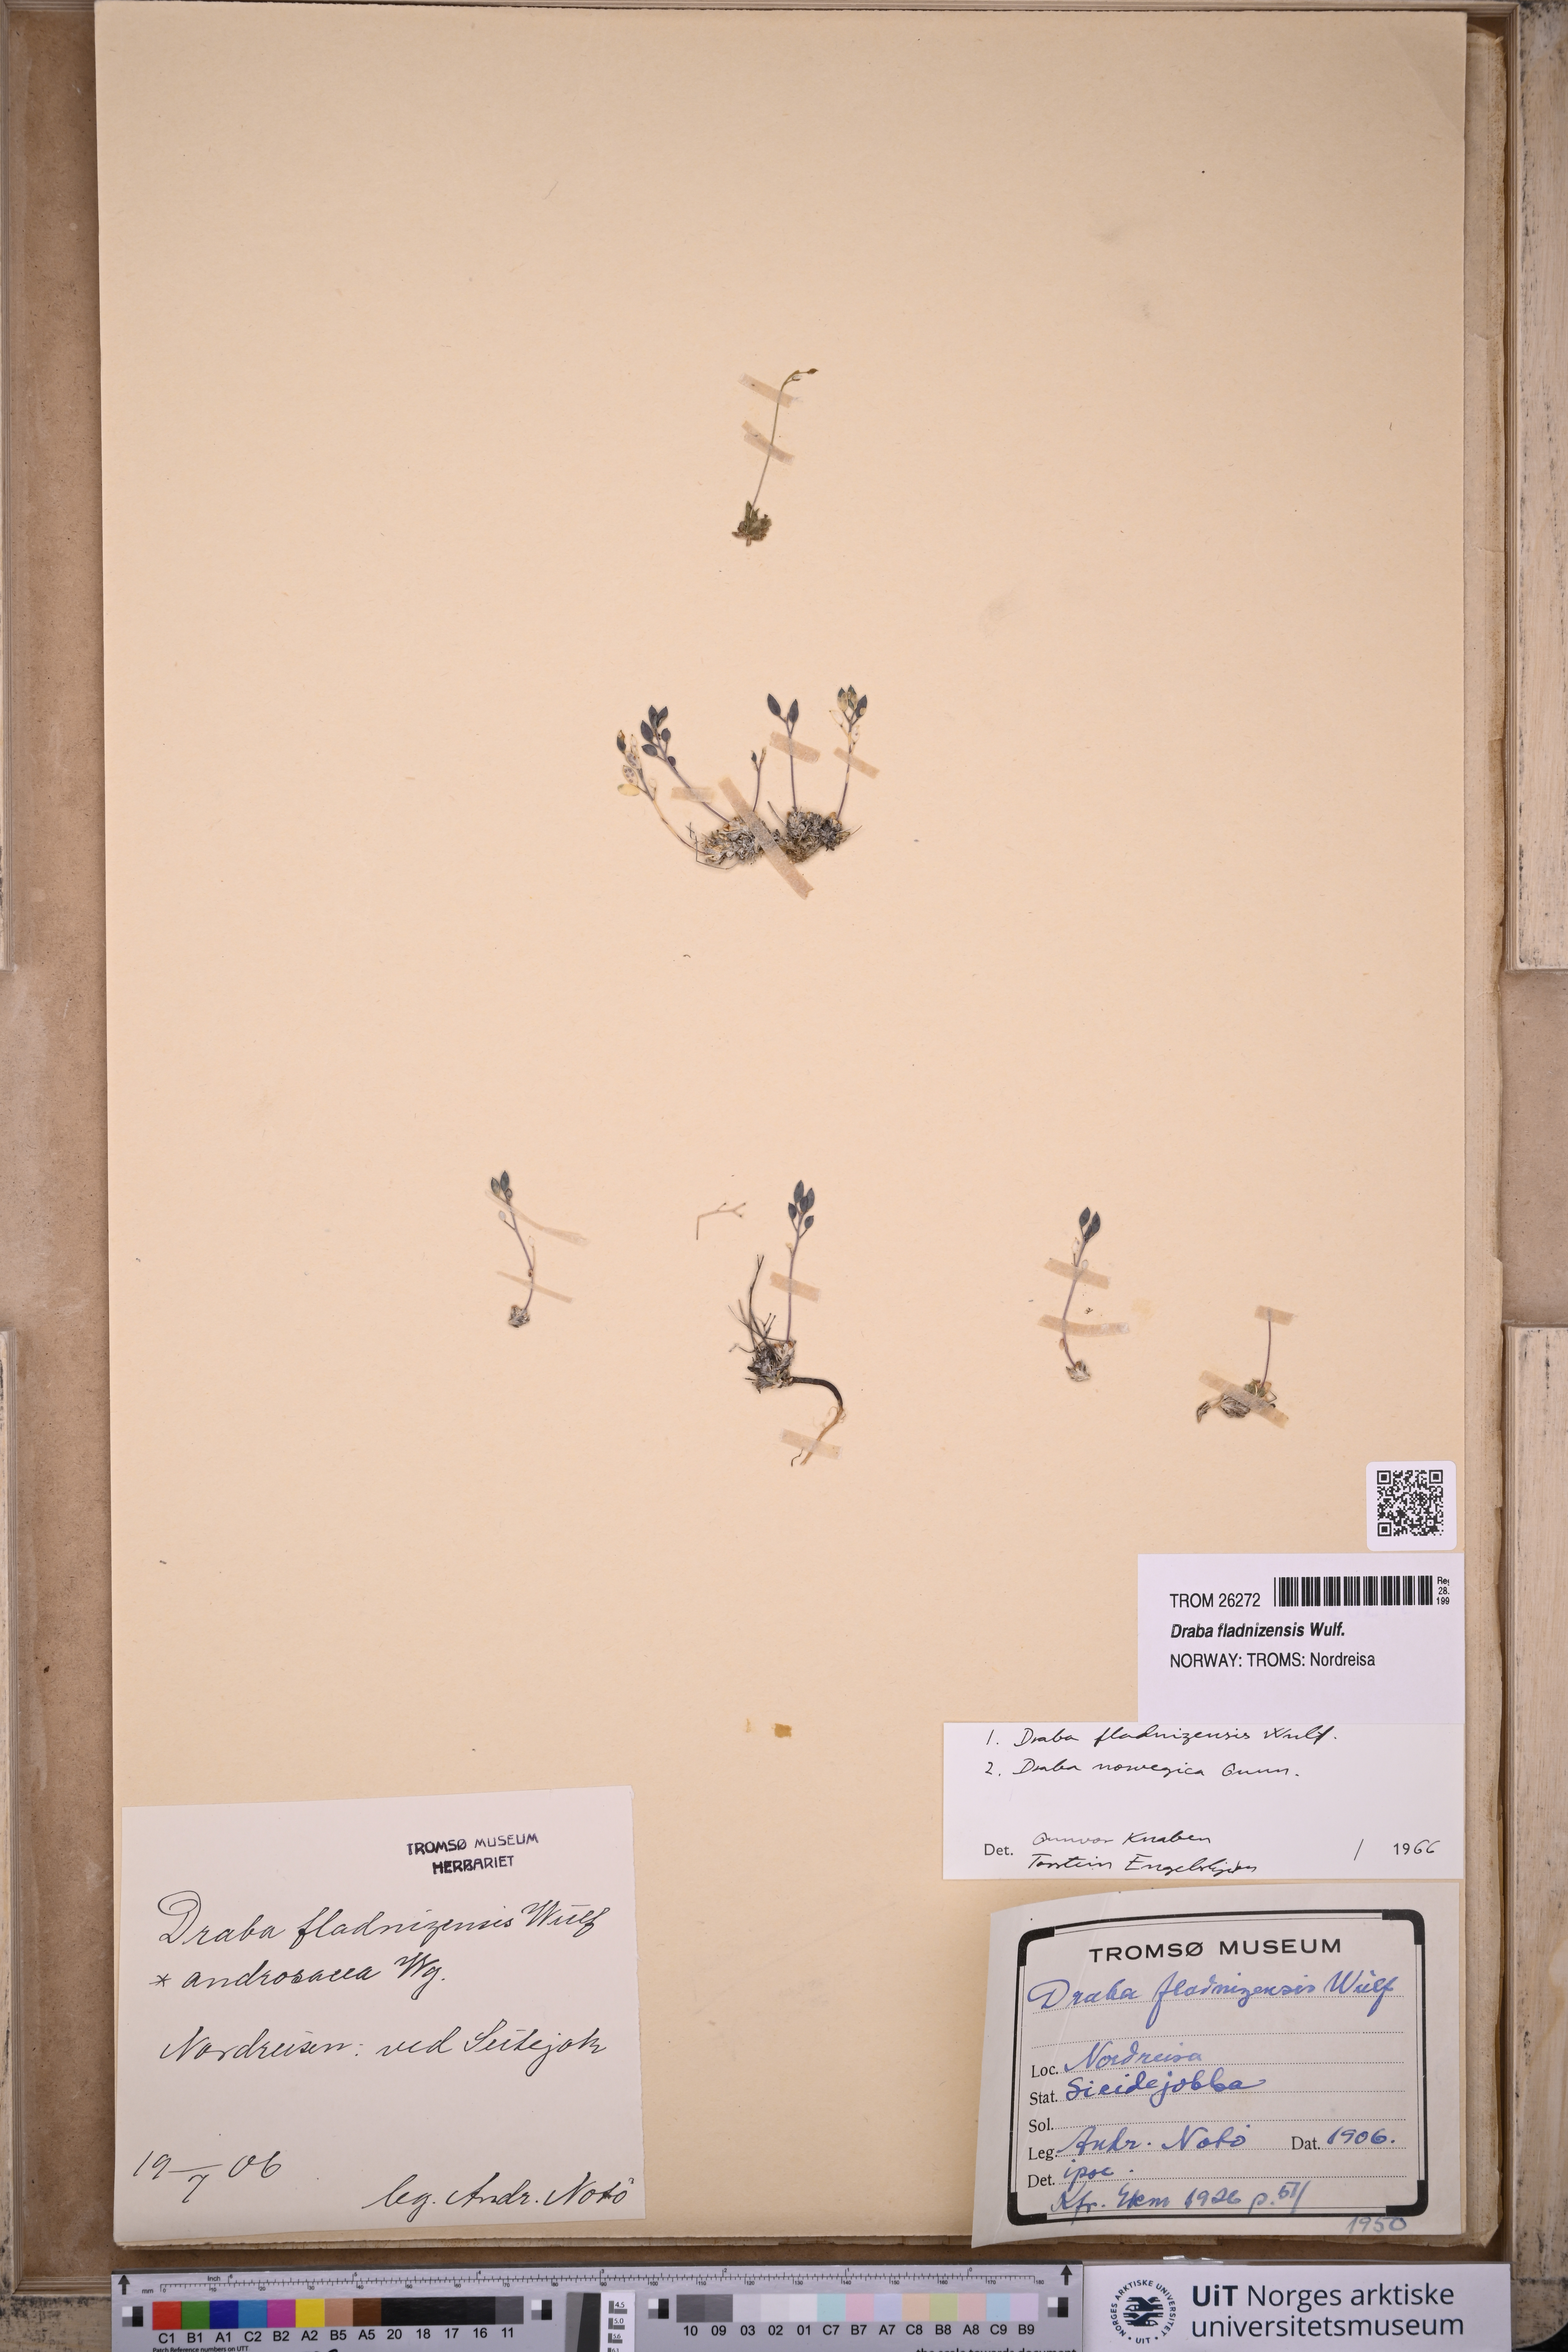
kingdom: Plantae
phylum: Tracheophyta
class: Magnoliopsida
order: Brassicales
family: Brassicaceae
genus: Draba
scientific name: Draba fladnizensis
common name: Austrian draba
